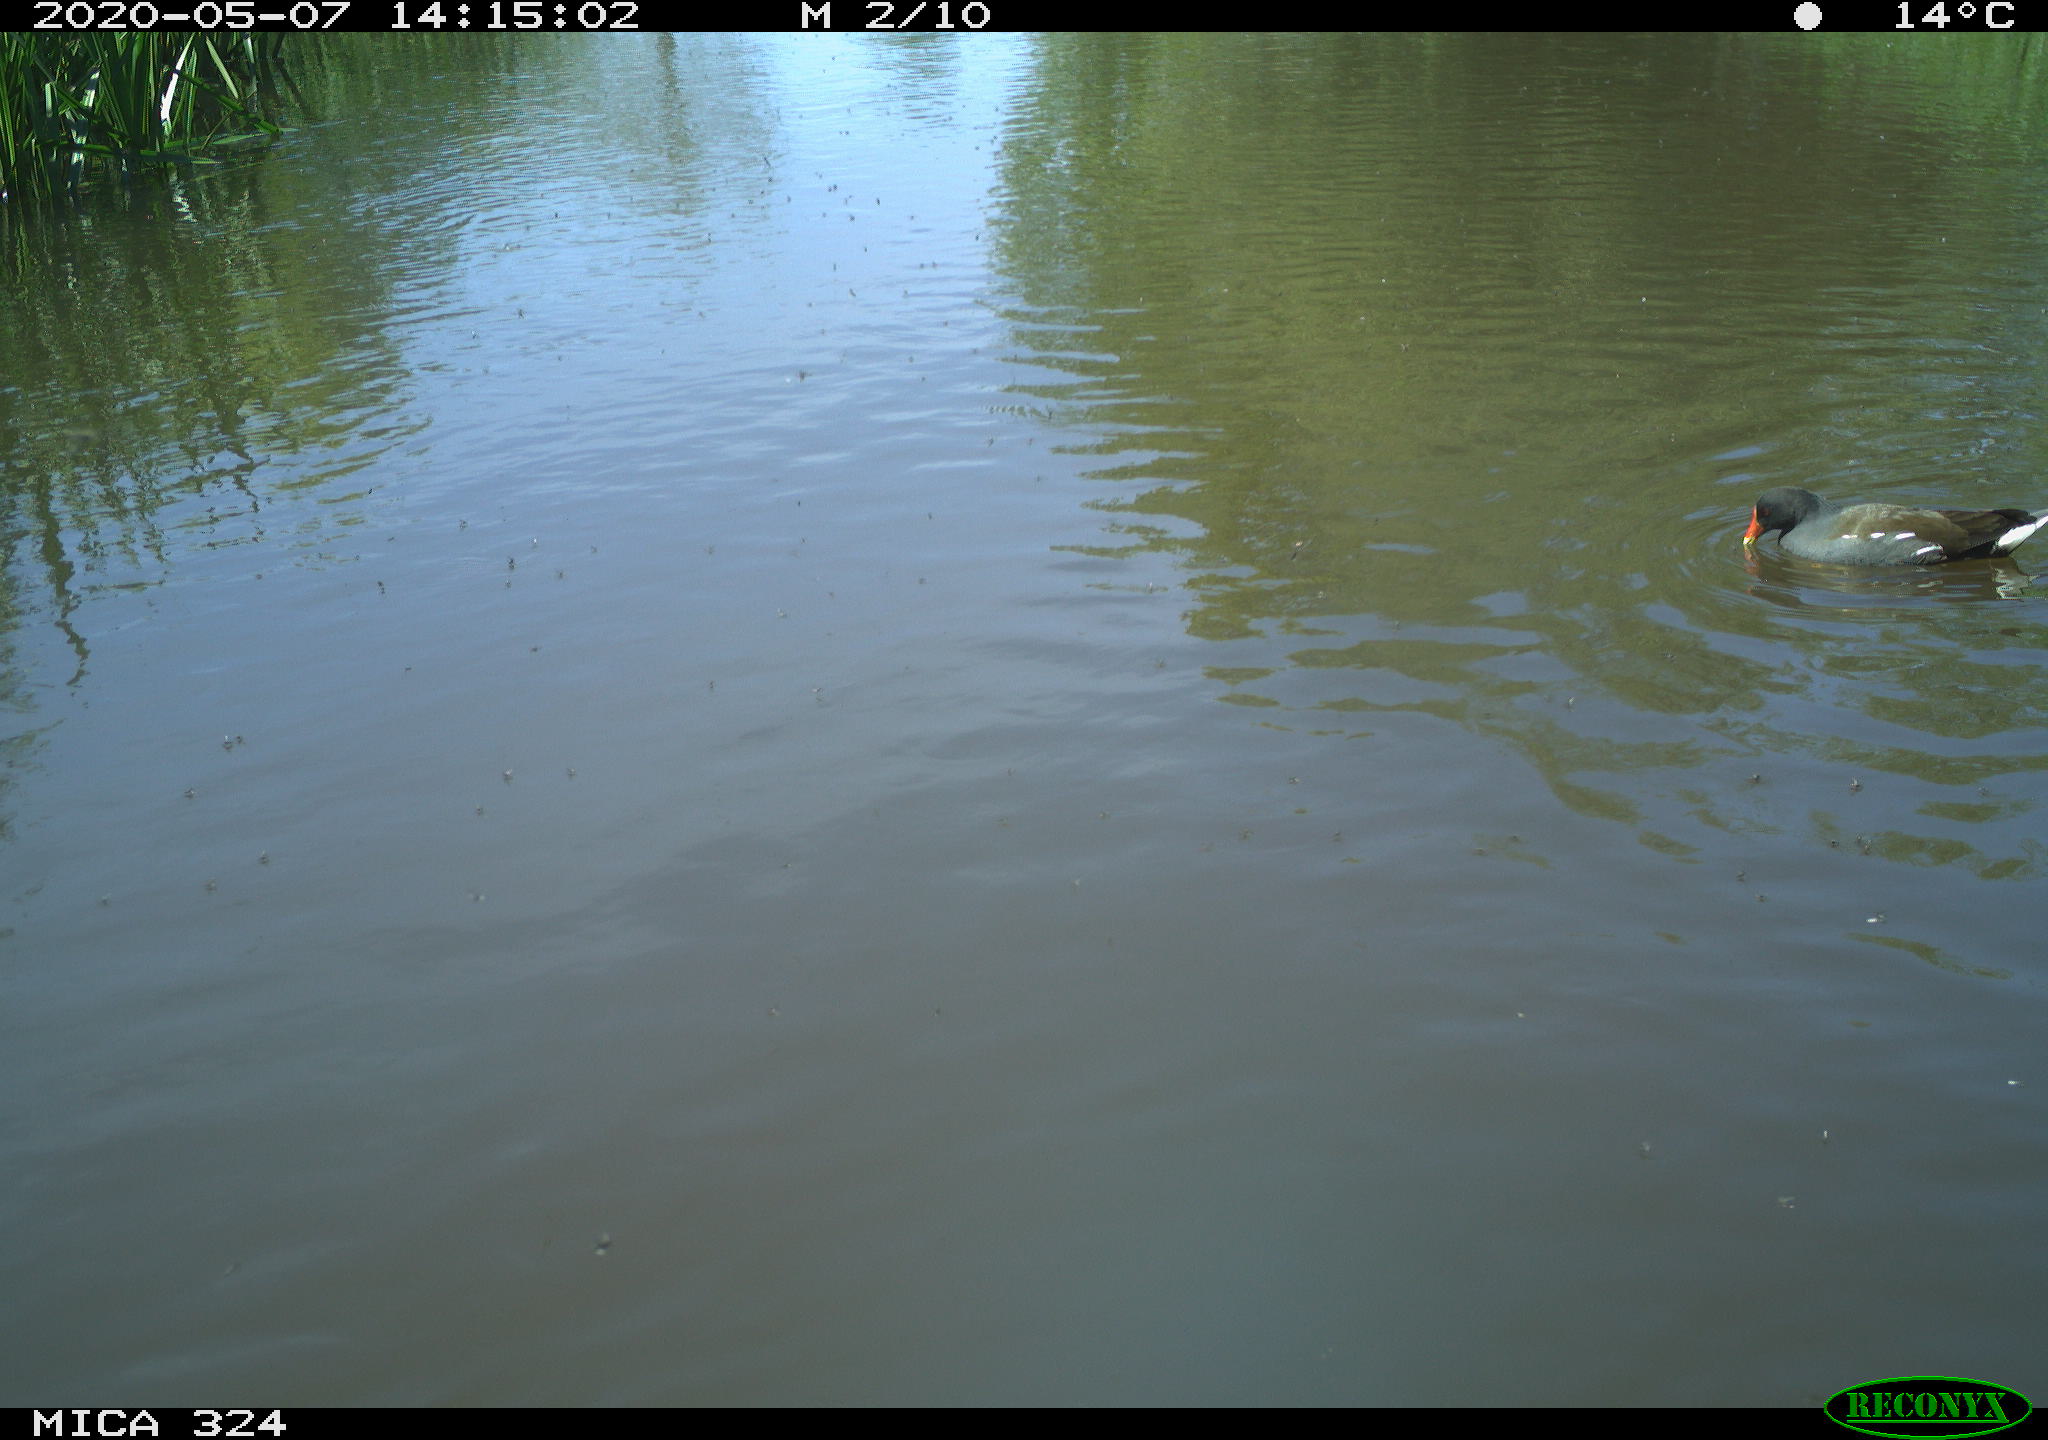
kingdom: Animalia
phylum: Chordata
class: Aves
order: Gruiformes
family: Rallidae
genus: Gallinula
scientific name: Gallinula chloropus
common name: Common moorhen
